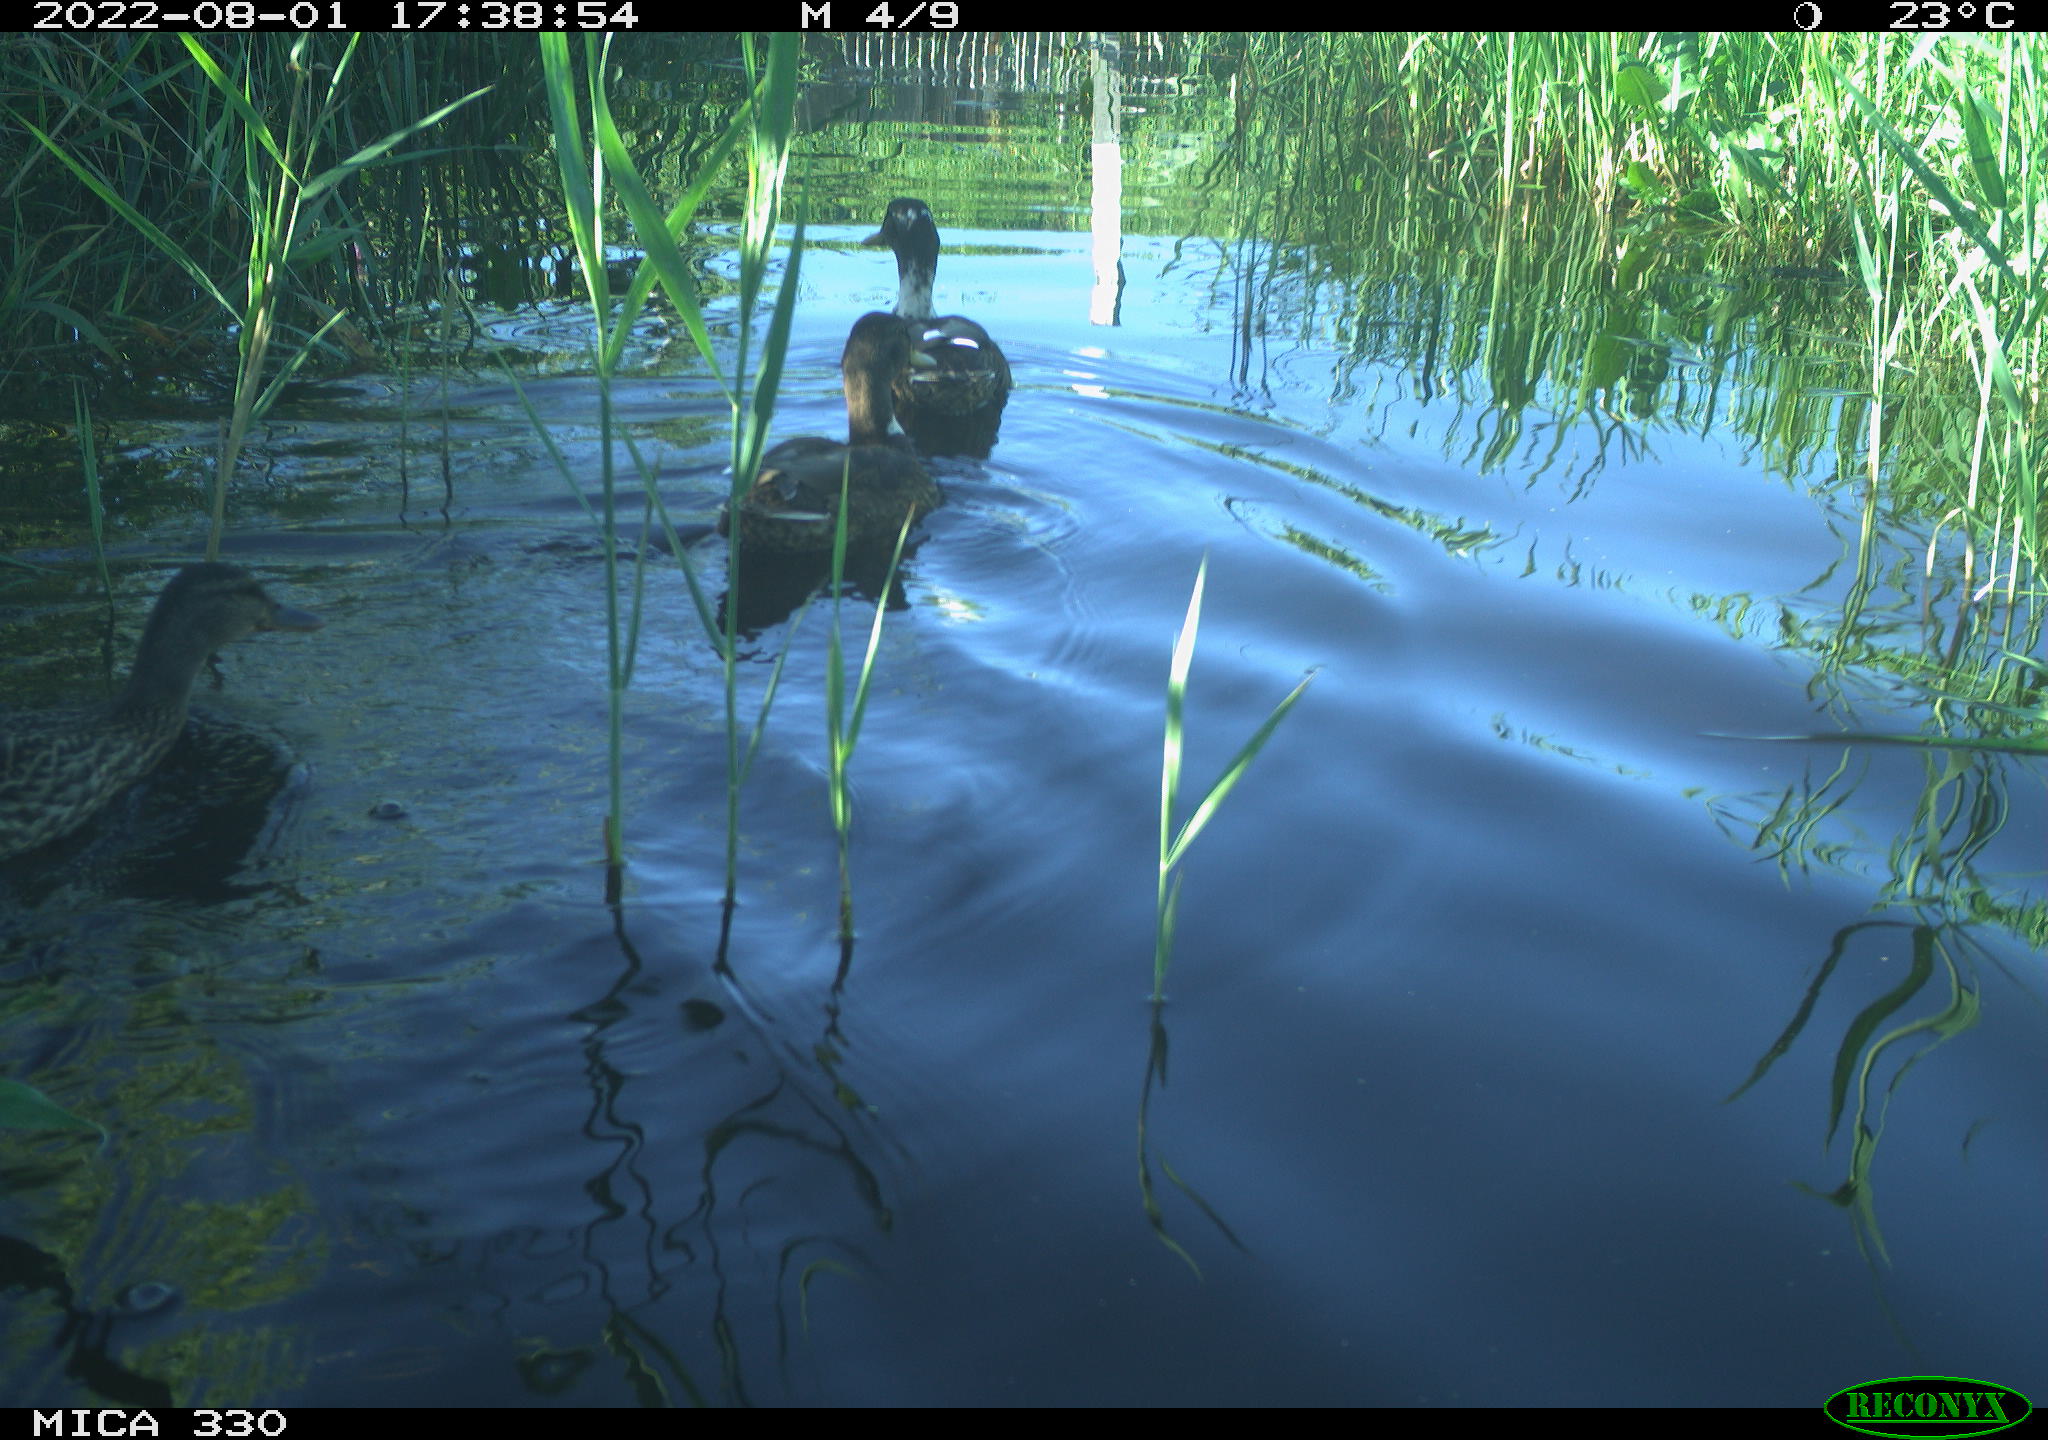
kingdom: Animalia
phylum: Chordata
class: Aves
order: Gruiformes
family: Rallidae
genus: Gallinula
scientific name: Gallinula chloropus
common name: Common moorhen
